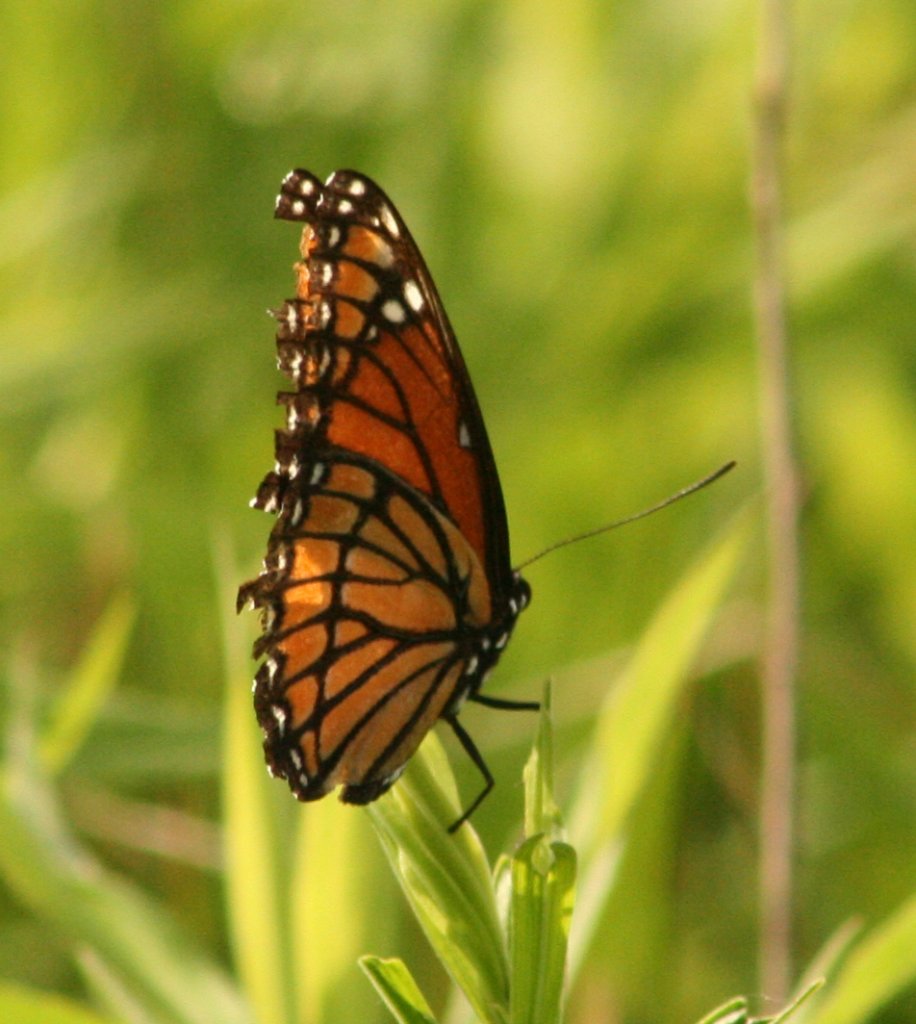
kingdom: Animalia
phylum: Arthropoda
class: Insecta
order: Lepidoptera
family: Nymphalidae
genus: Limenitis
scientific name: Limenitis archippus
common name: Viceroy
